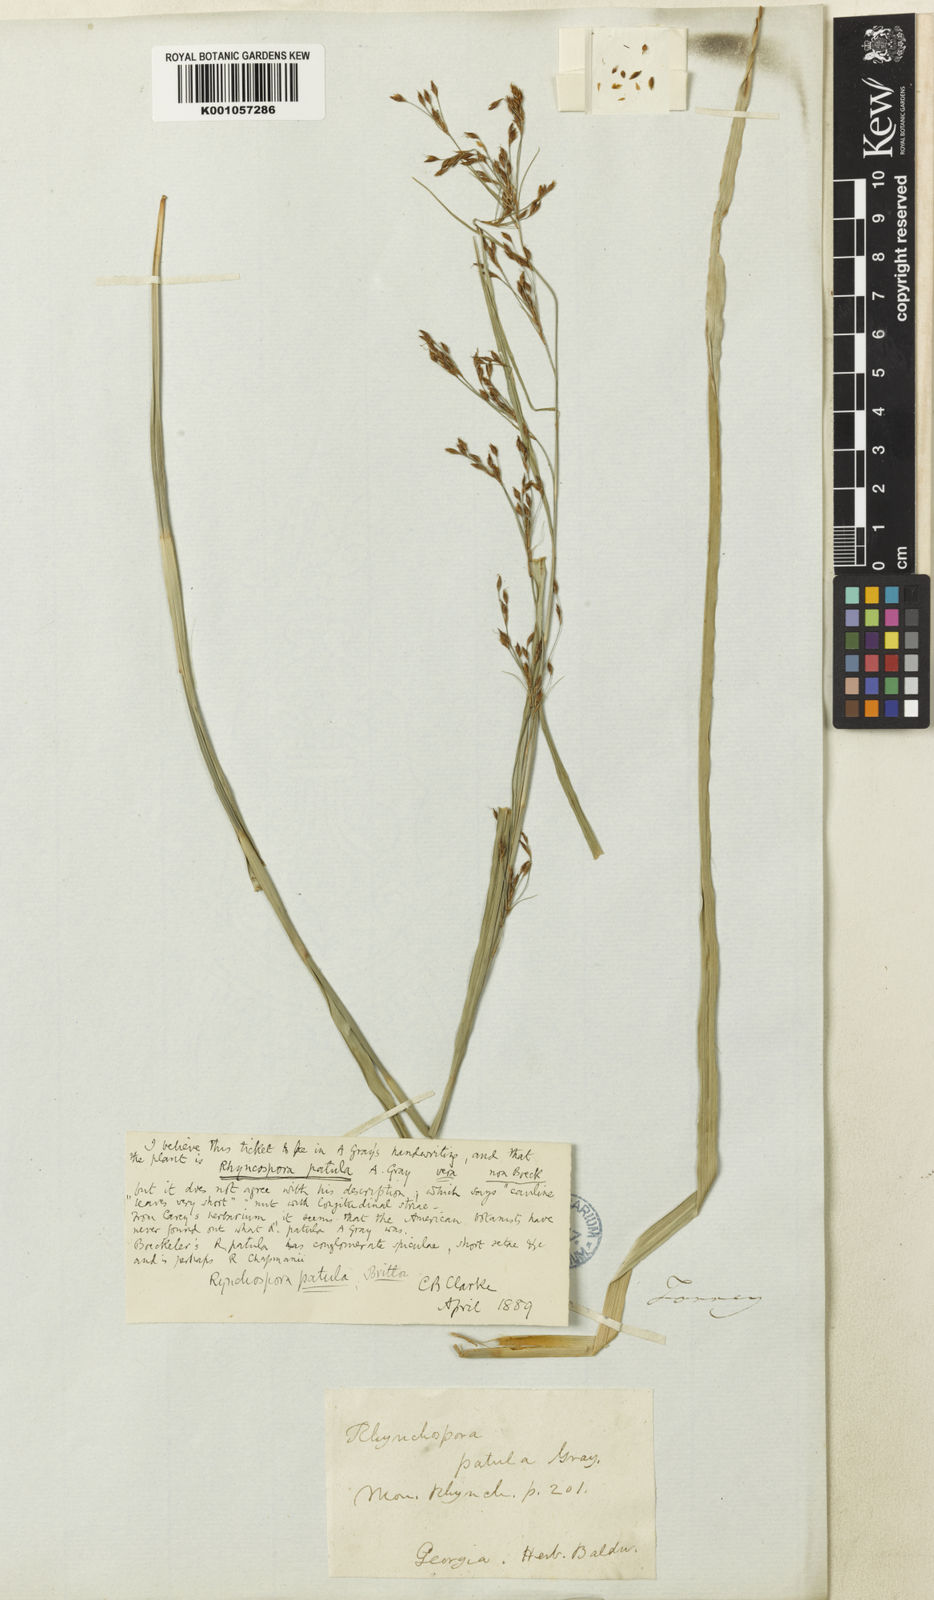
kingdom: Plantae
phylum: Tracheophyta
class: Liliopsida
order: Poales
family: Cyperaceae
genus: Rhynchospora
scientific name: Rhynchospora caduca
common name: Anglestem beaksedge
